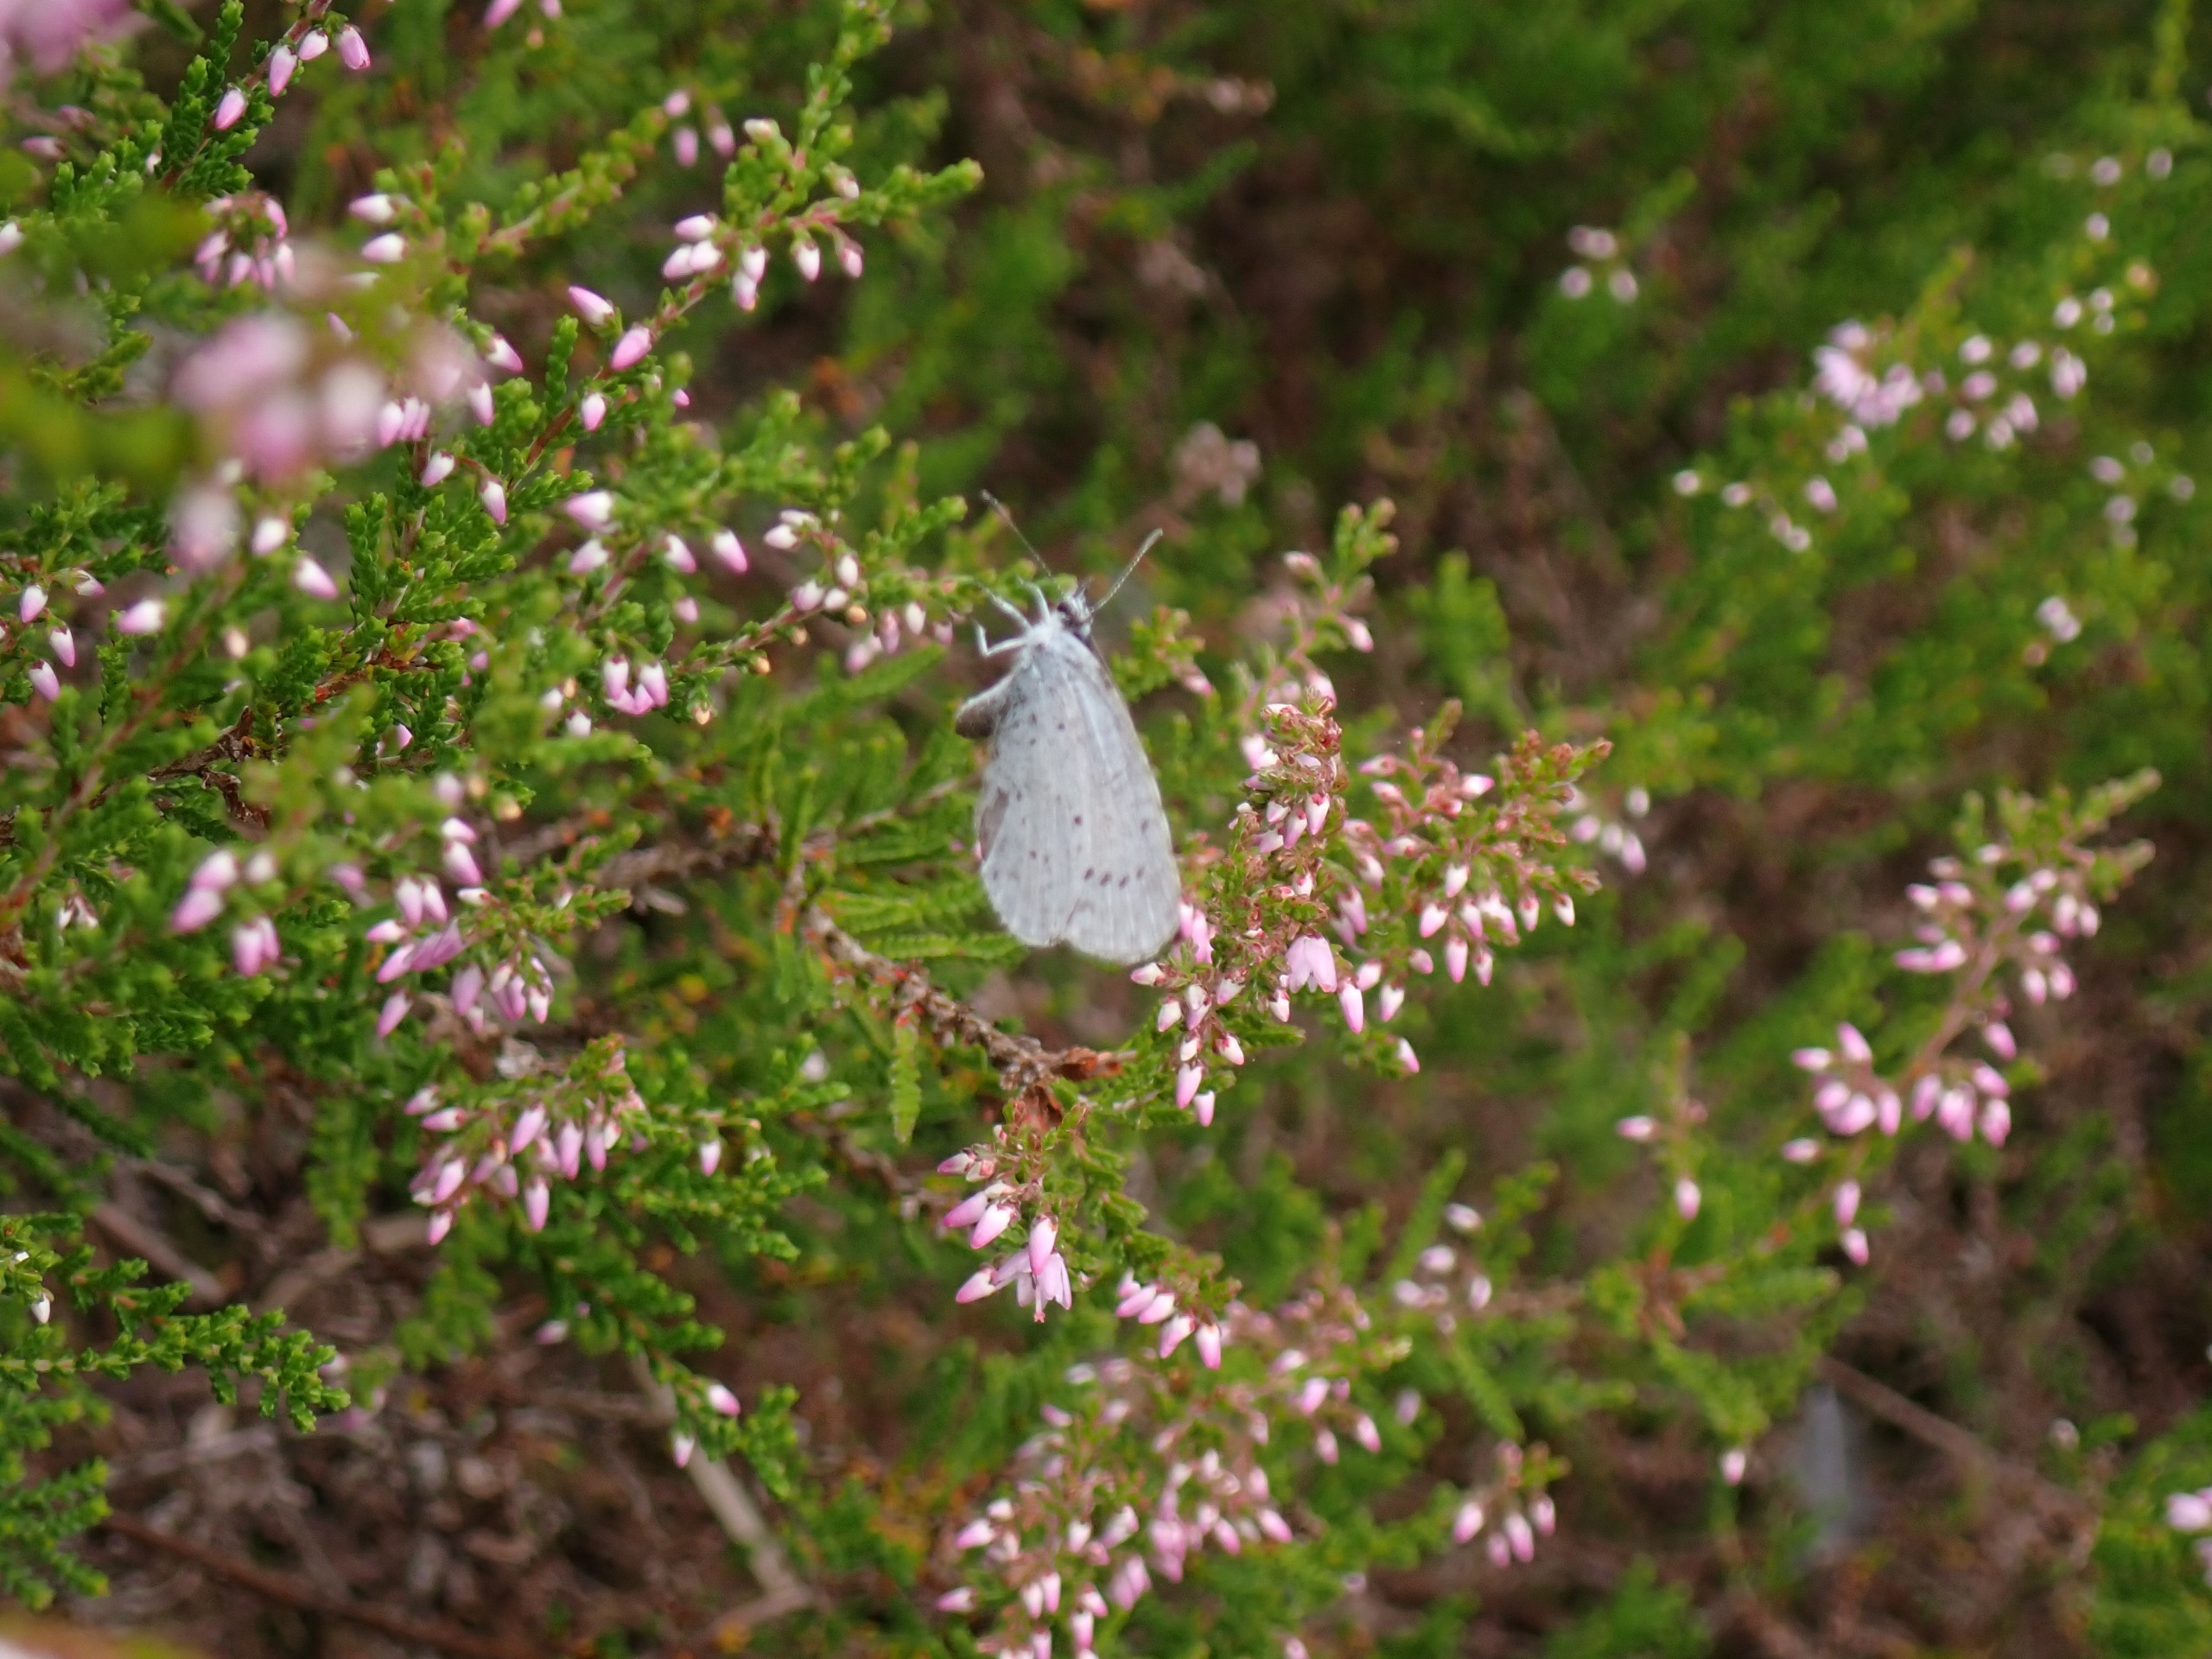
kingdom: Animalia
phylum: Arthropoda
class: Insecta
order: Lepidoptera
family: Lycaenidae
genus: Celastrina
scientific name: Celastrina argiolus
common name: Skovblåfugl
